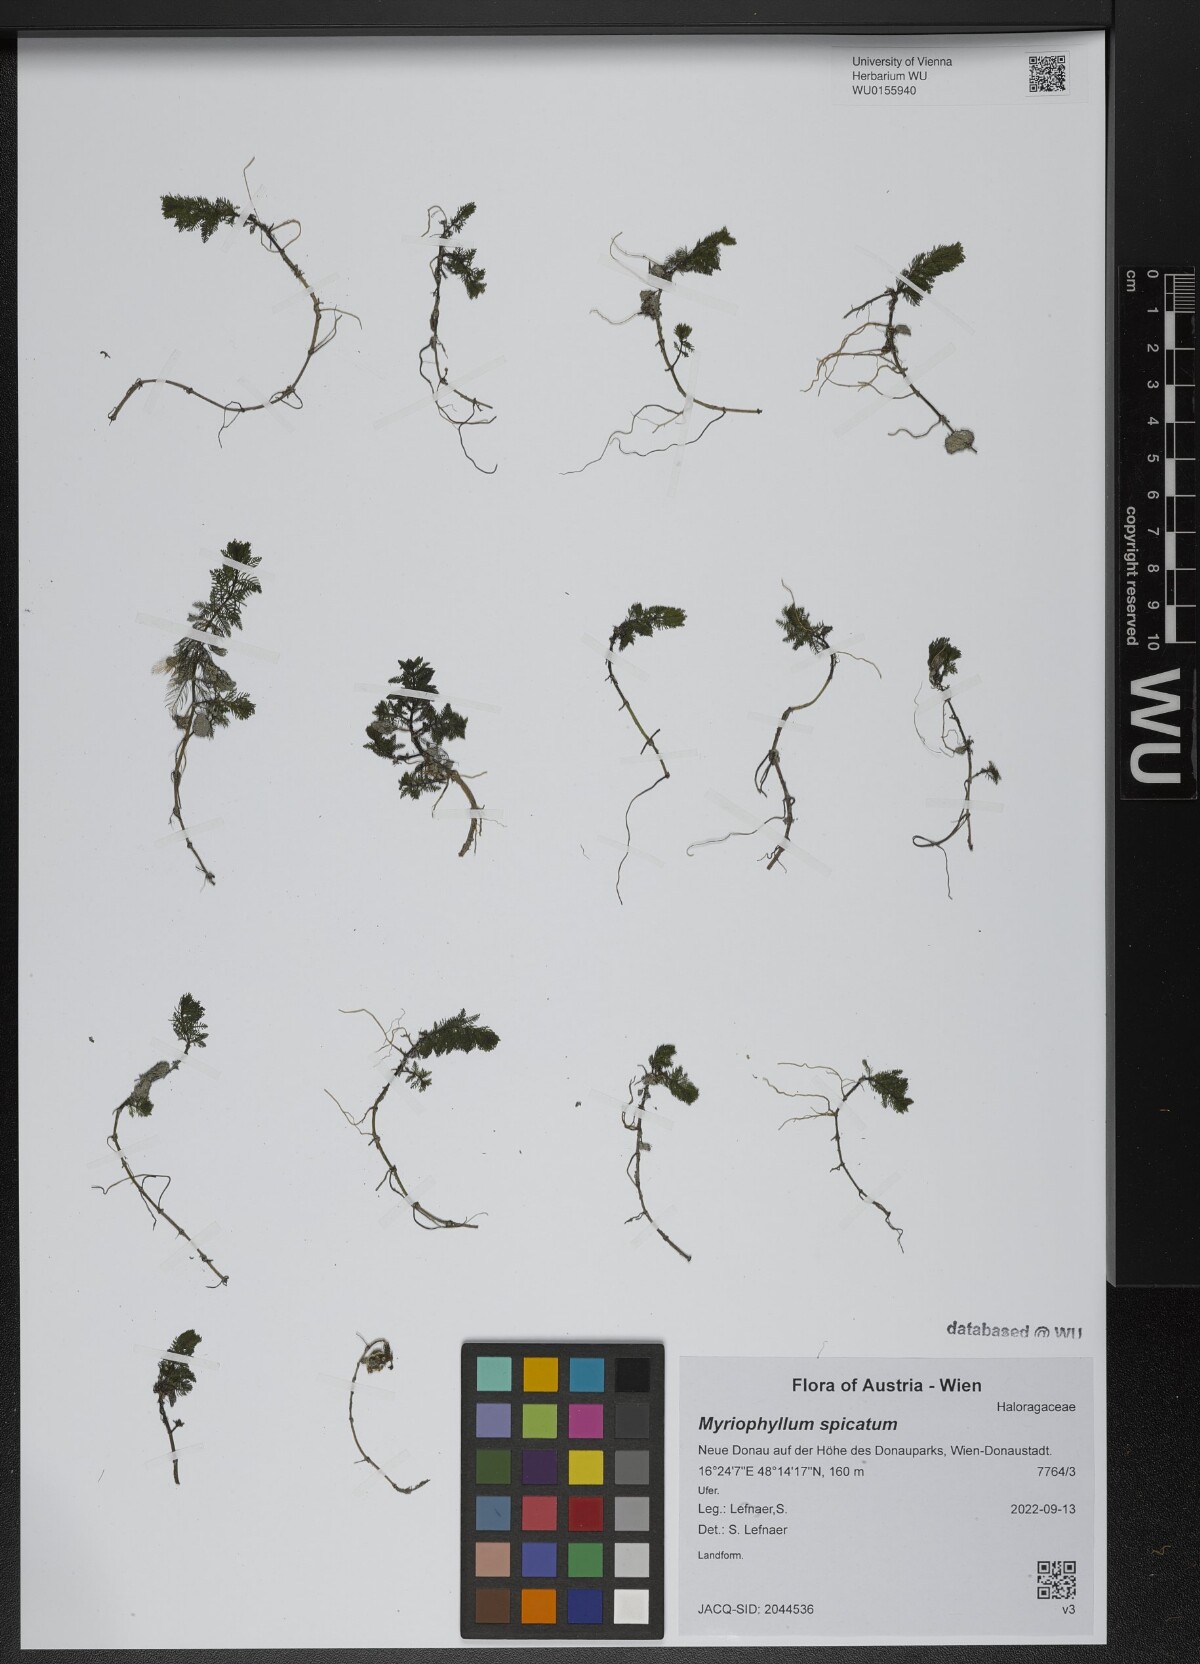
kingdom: Plantae
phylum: Tracheophyta
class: Magnoliopsida
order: Saxifragales
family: Haloragaceae
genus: Myriophyllum
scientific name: Myriophyllum spicatum
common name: Spiked water-milfoil
